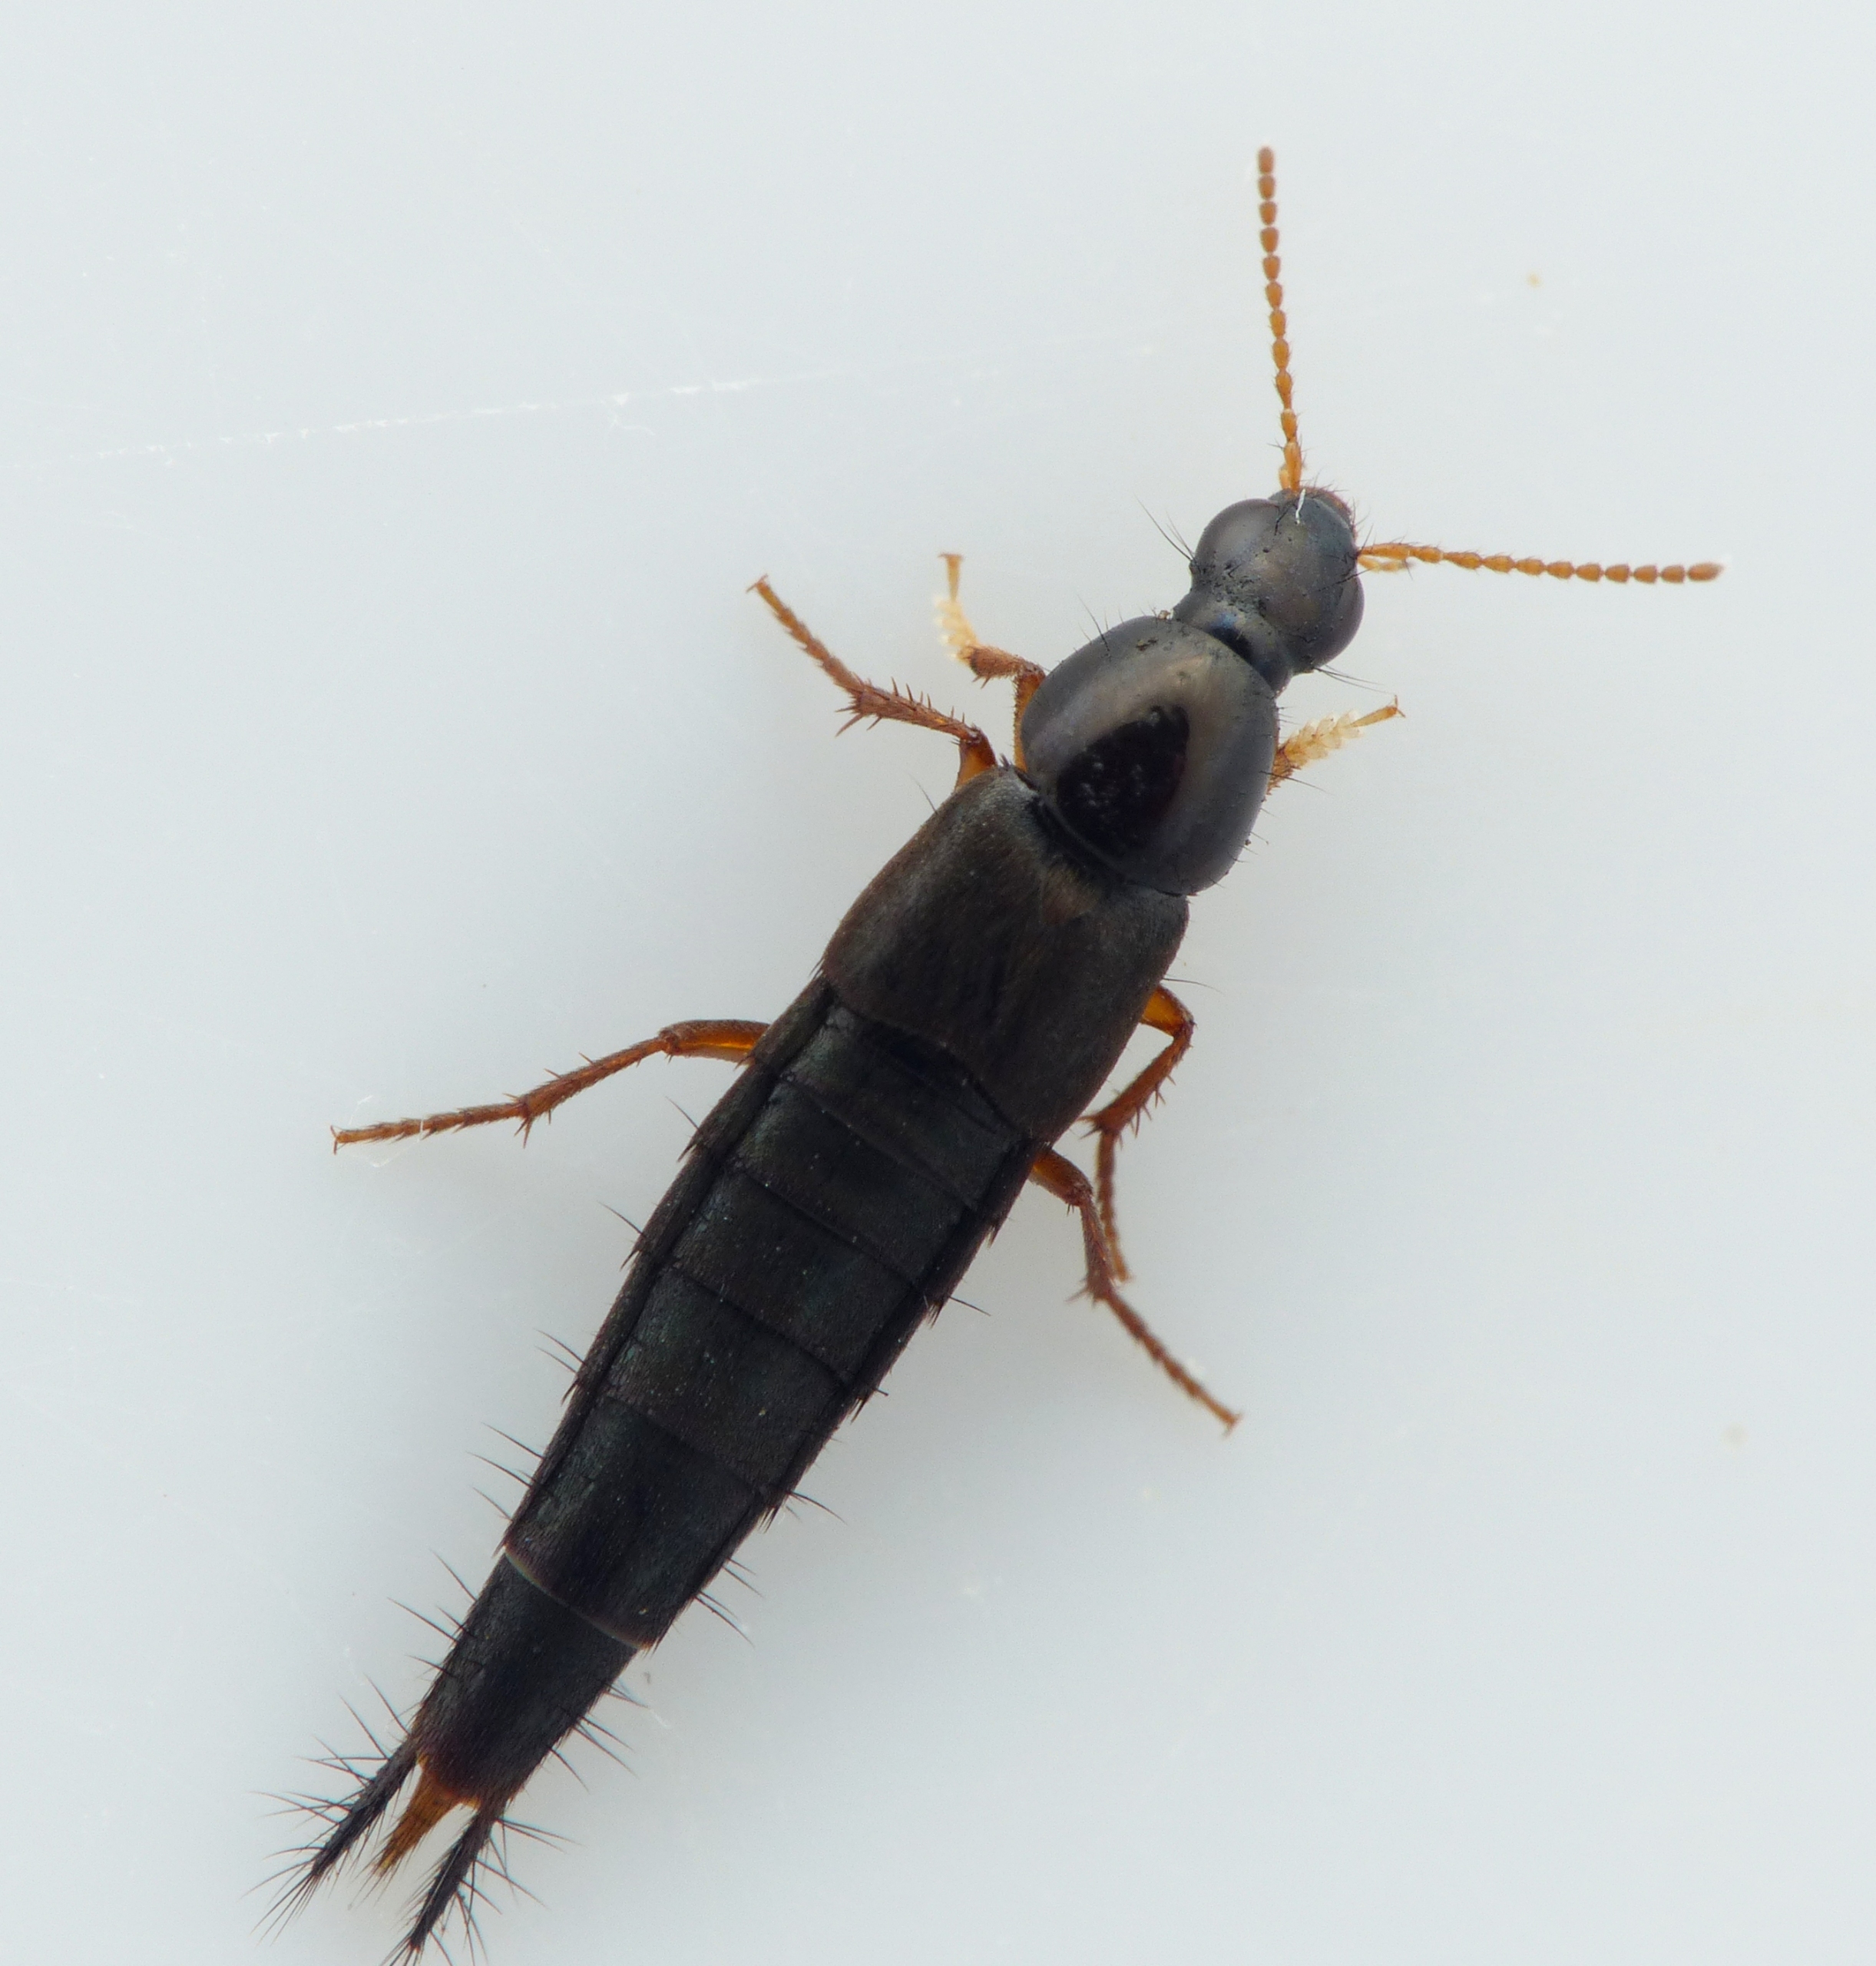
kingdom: Animalia
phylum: Arthropoda
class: Insecta
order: Coleoptera
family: Staphylinidae
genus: Quedius
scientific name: Quedius semiobscurus
